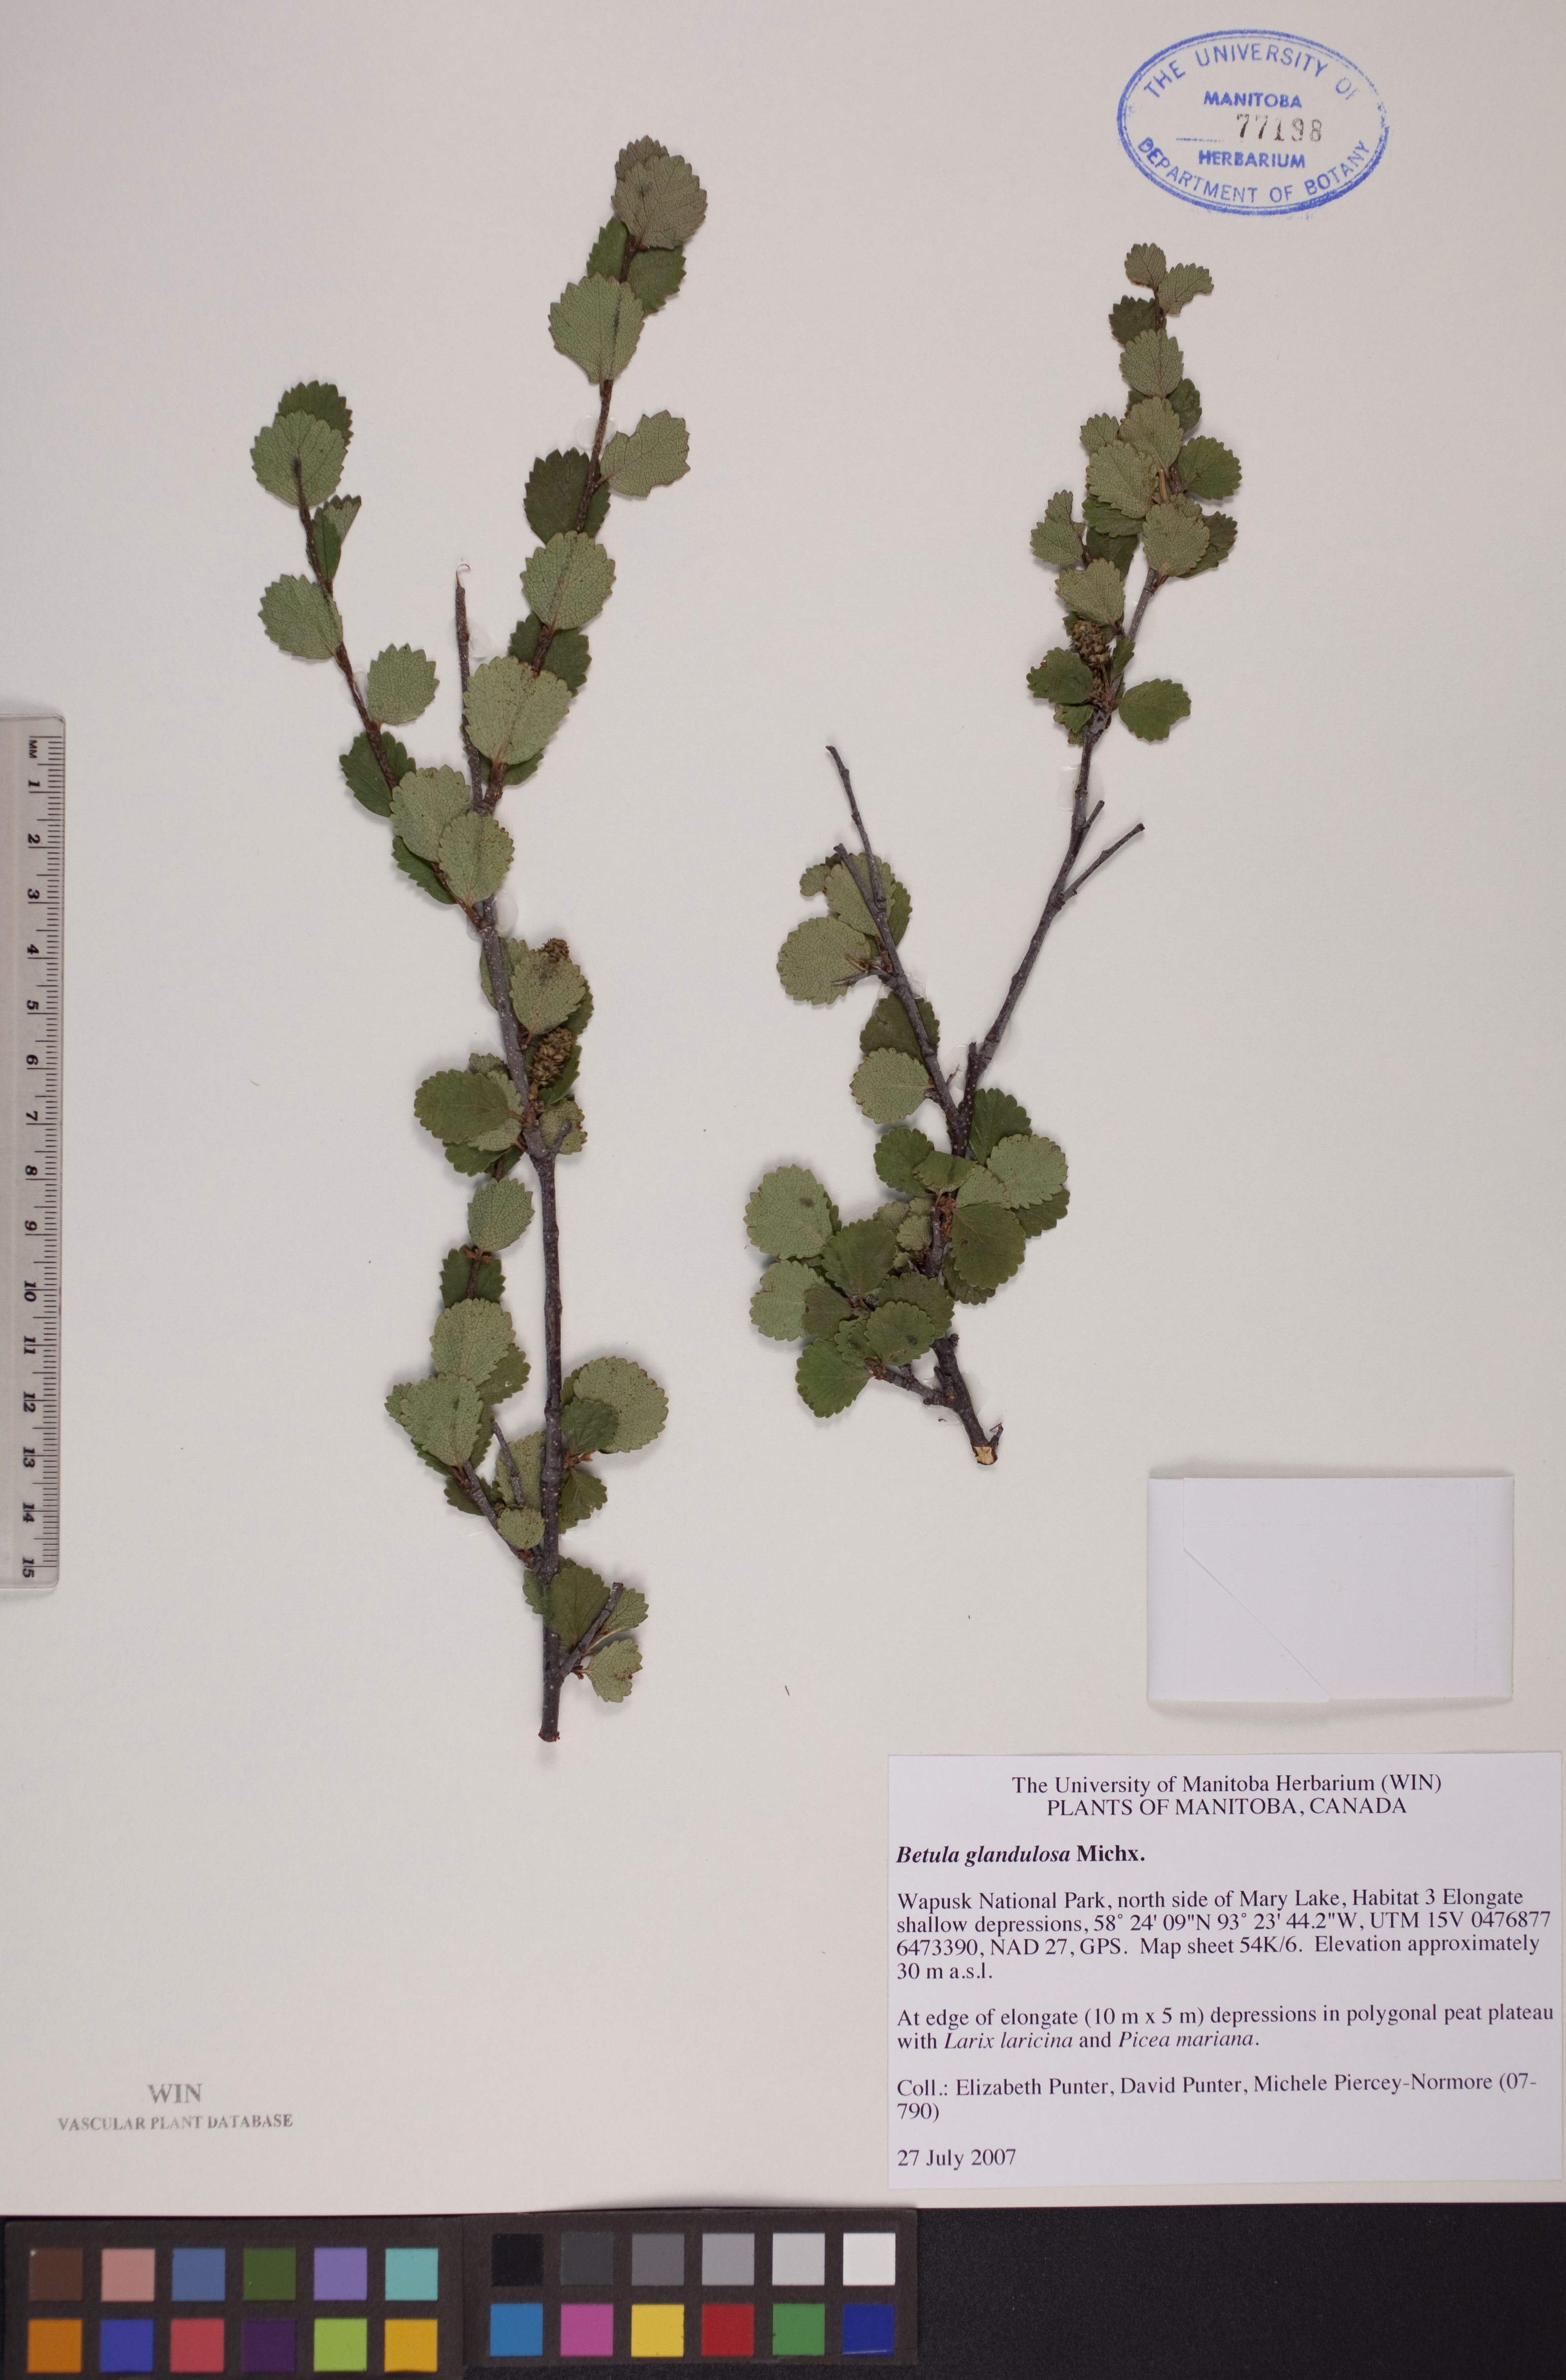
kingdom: Plantae
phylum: Tracheophyta
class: Magnoliopsida
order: Fagales
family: Betulaceae
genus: Betula
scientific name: Betula glandulosa
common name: Dwarf birch
